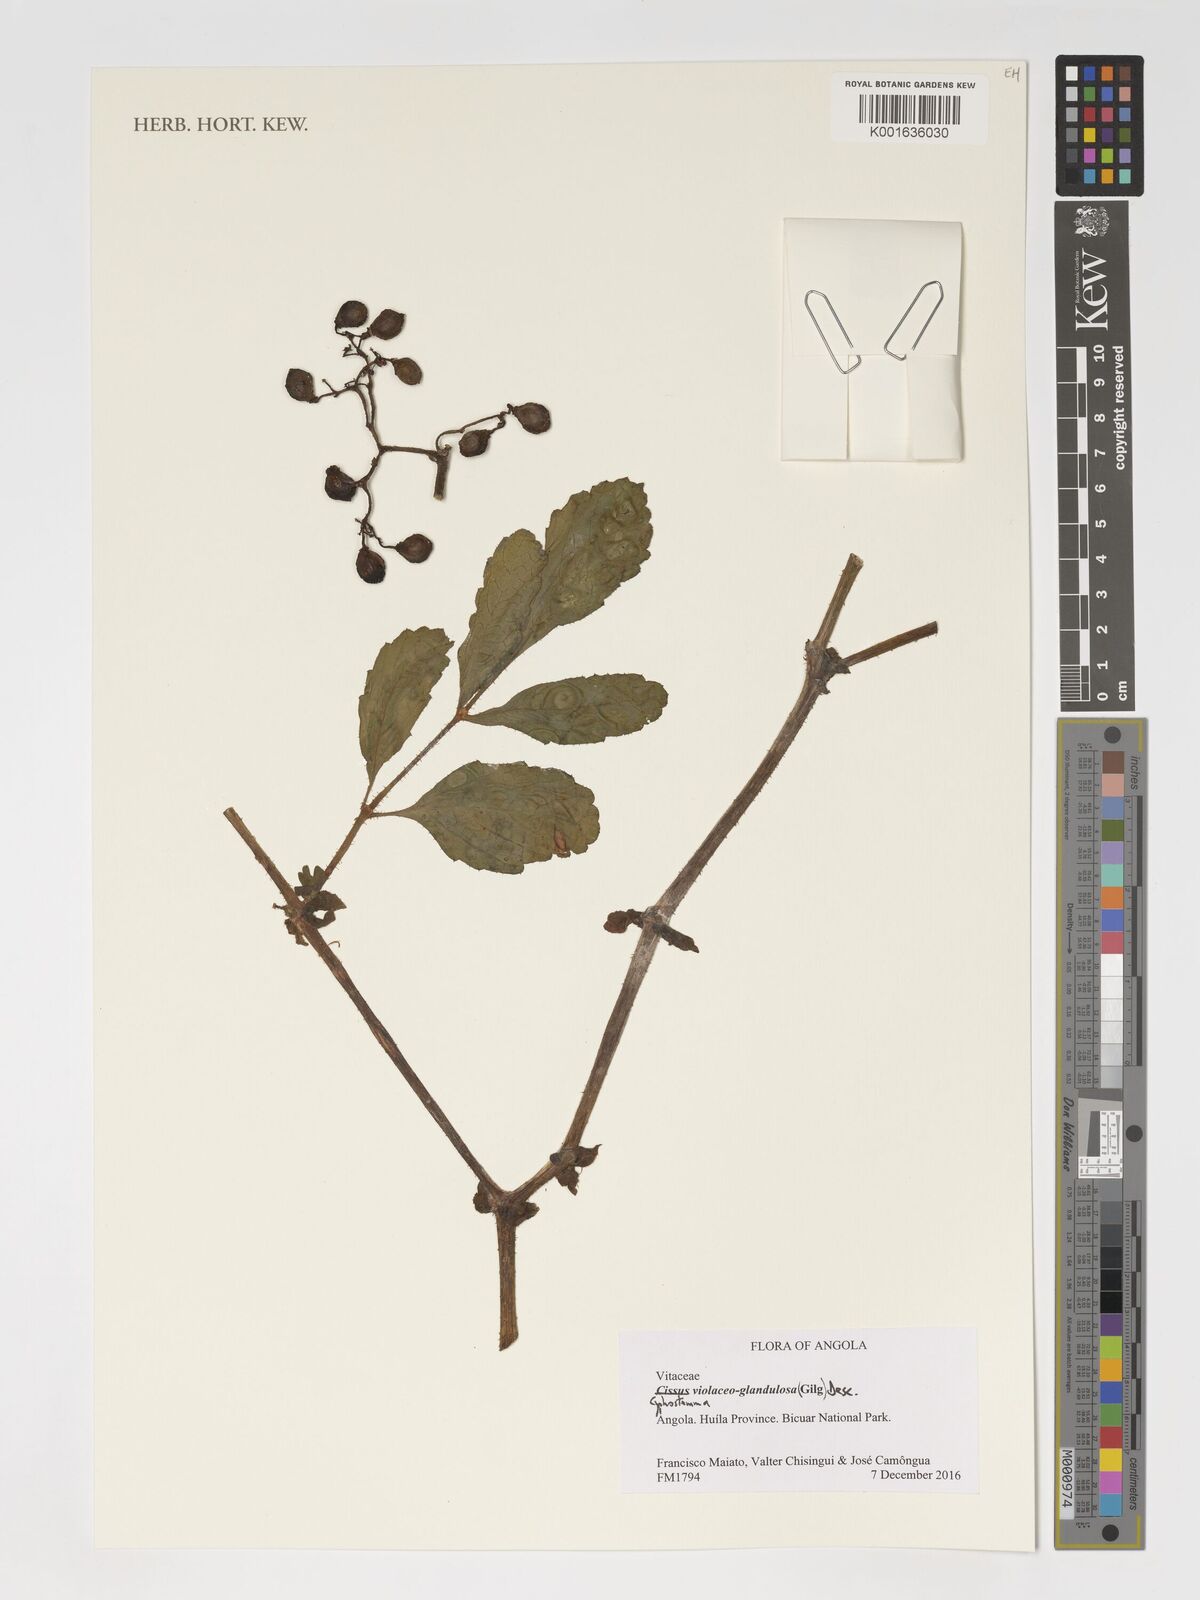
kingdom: Plantae
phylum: Tracheophyta
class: Magnoliopsida
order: Vitales
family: Vitaceae
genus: Cyphostemma
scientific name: Cyphostemma violaceoglandulosum
